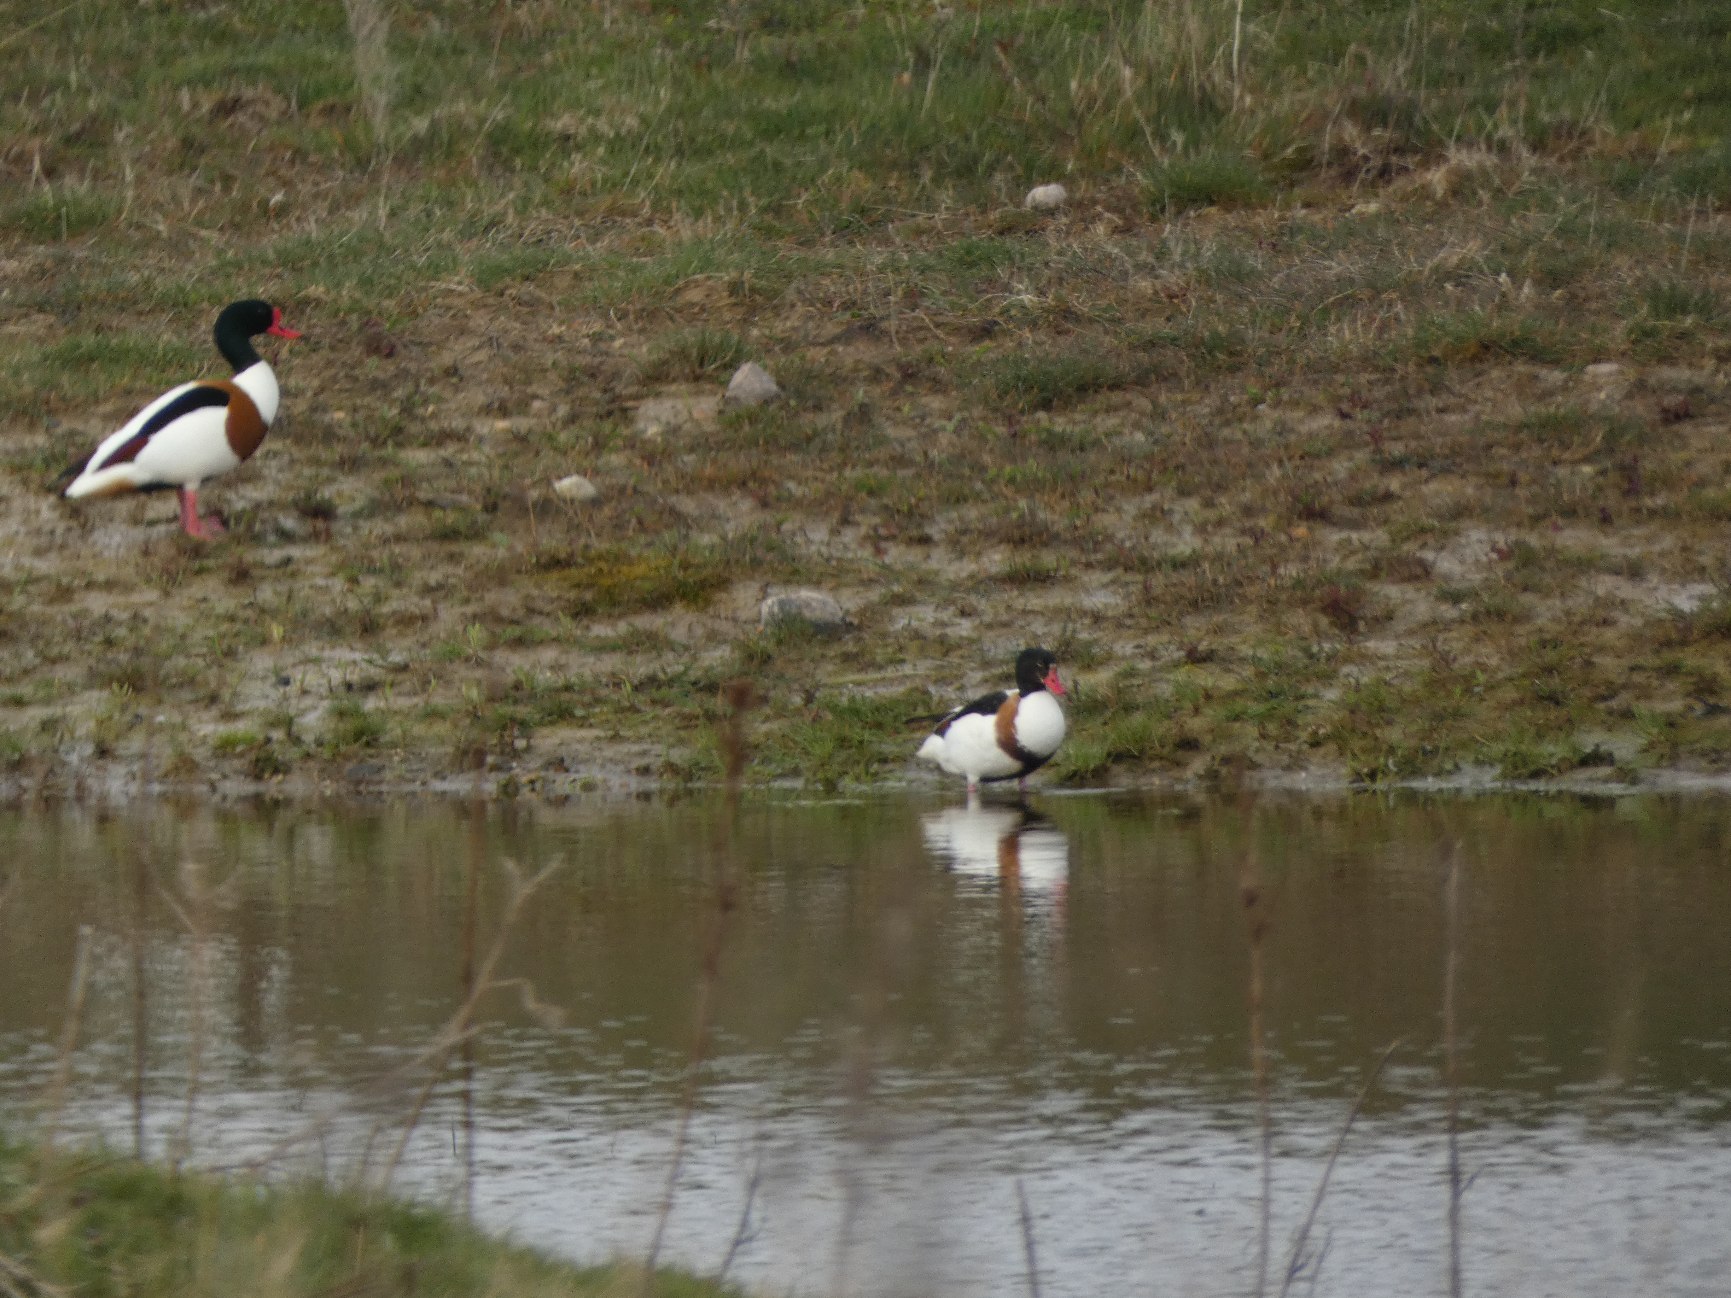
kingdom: Animalia
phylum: Chordata
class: Aves
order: Anseriformes
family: Anatidae
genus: Tadorna
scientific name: Tadorna tadorna
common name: Gravand
